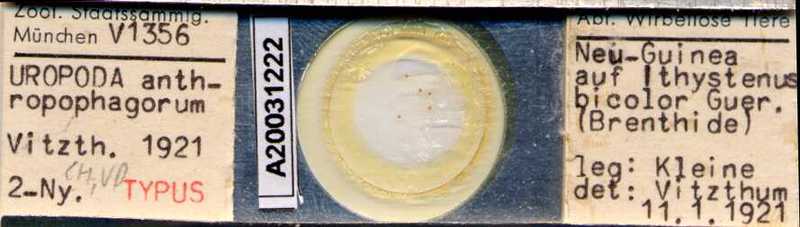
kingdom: Animalia
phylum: Arthropoda
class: Arachnida
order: Mesostigmata
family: Uropodidae
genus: Uropoda
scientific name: Uropoda
